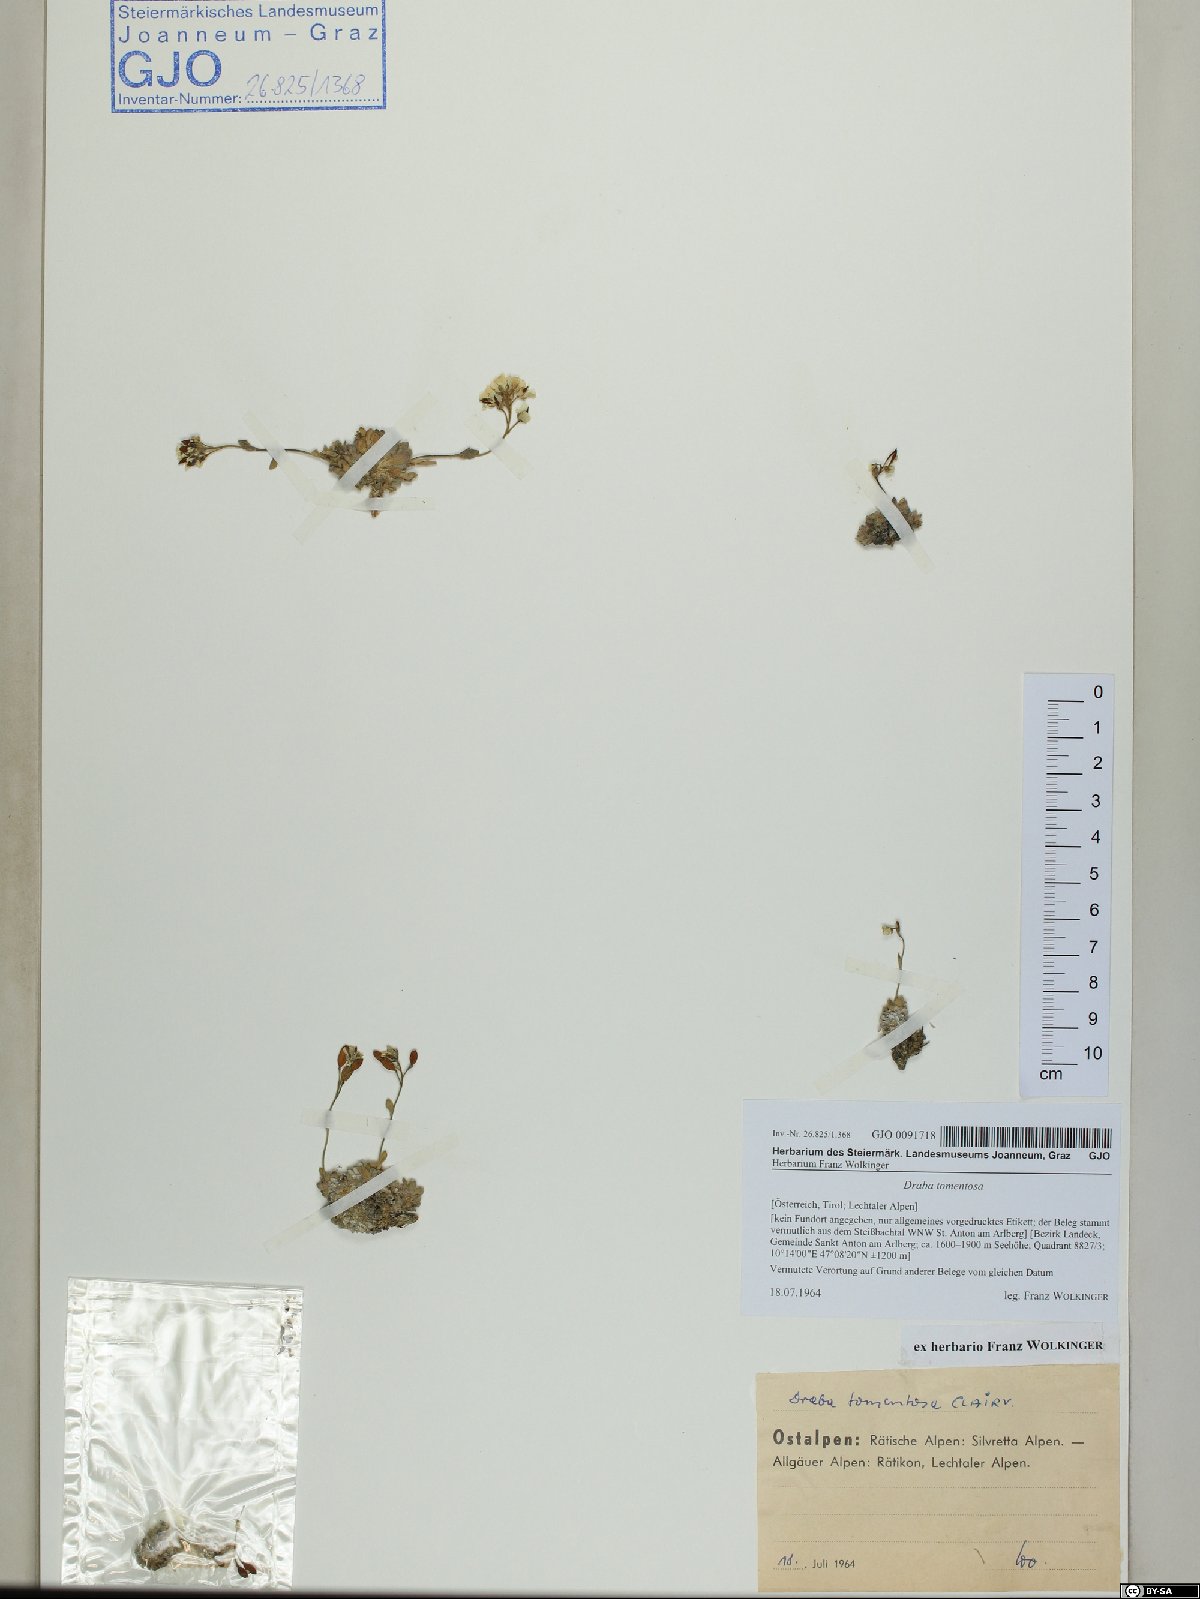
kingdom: Plantae
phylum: Tracheophyta
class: Magnoliopsida
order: Brassicales
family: Brassicaceae
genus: Draba
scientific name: Draba tomentosa
